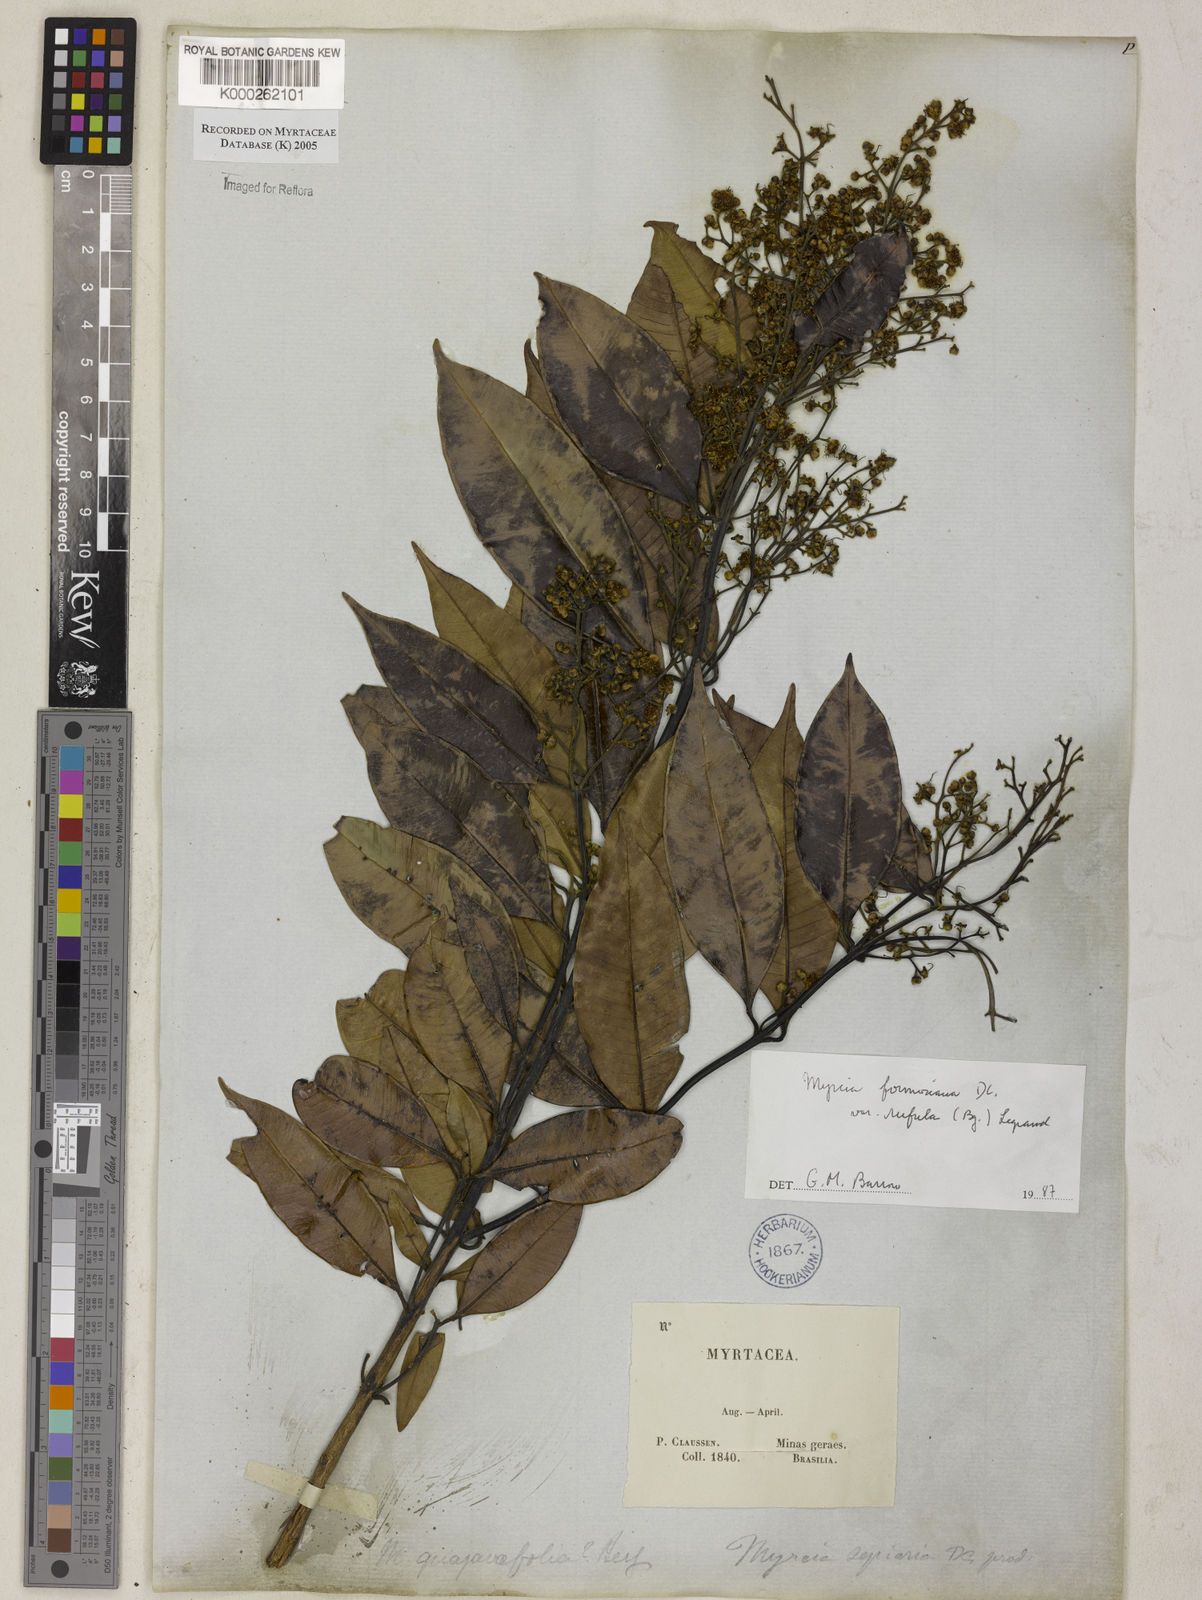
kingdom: Plantae
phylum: Tracheophyta
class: Magnoliopsida
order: Myrtales
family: Myrtaceae
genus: Myrcia
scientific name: Myrcia splendens
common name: Surinam cherry
